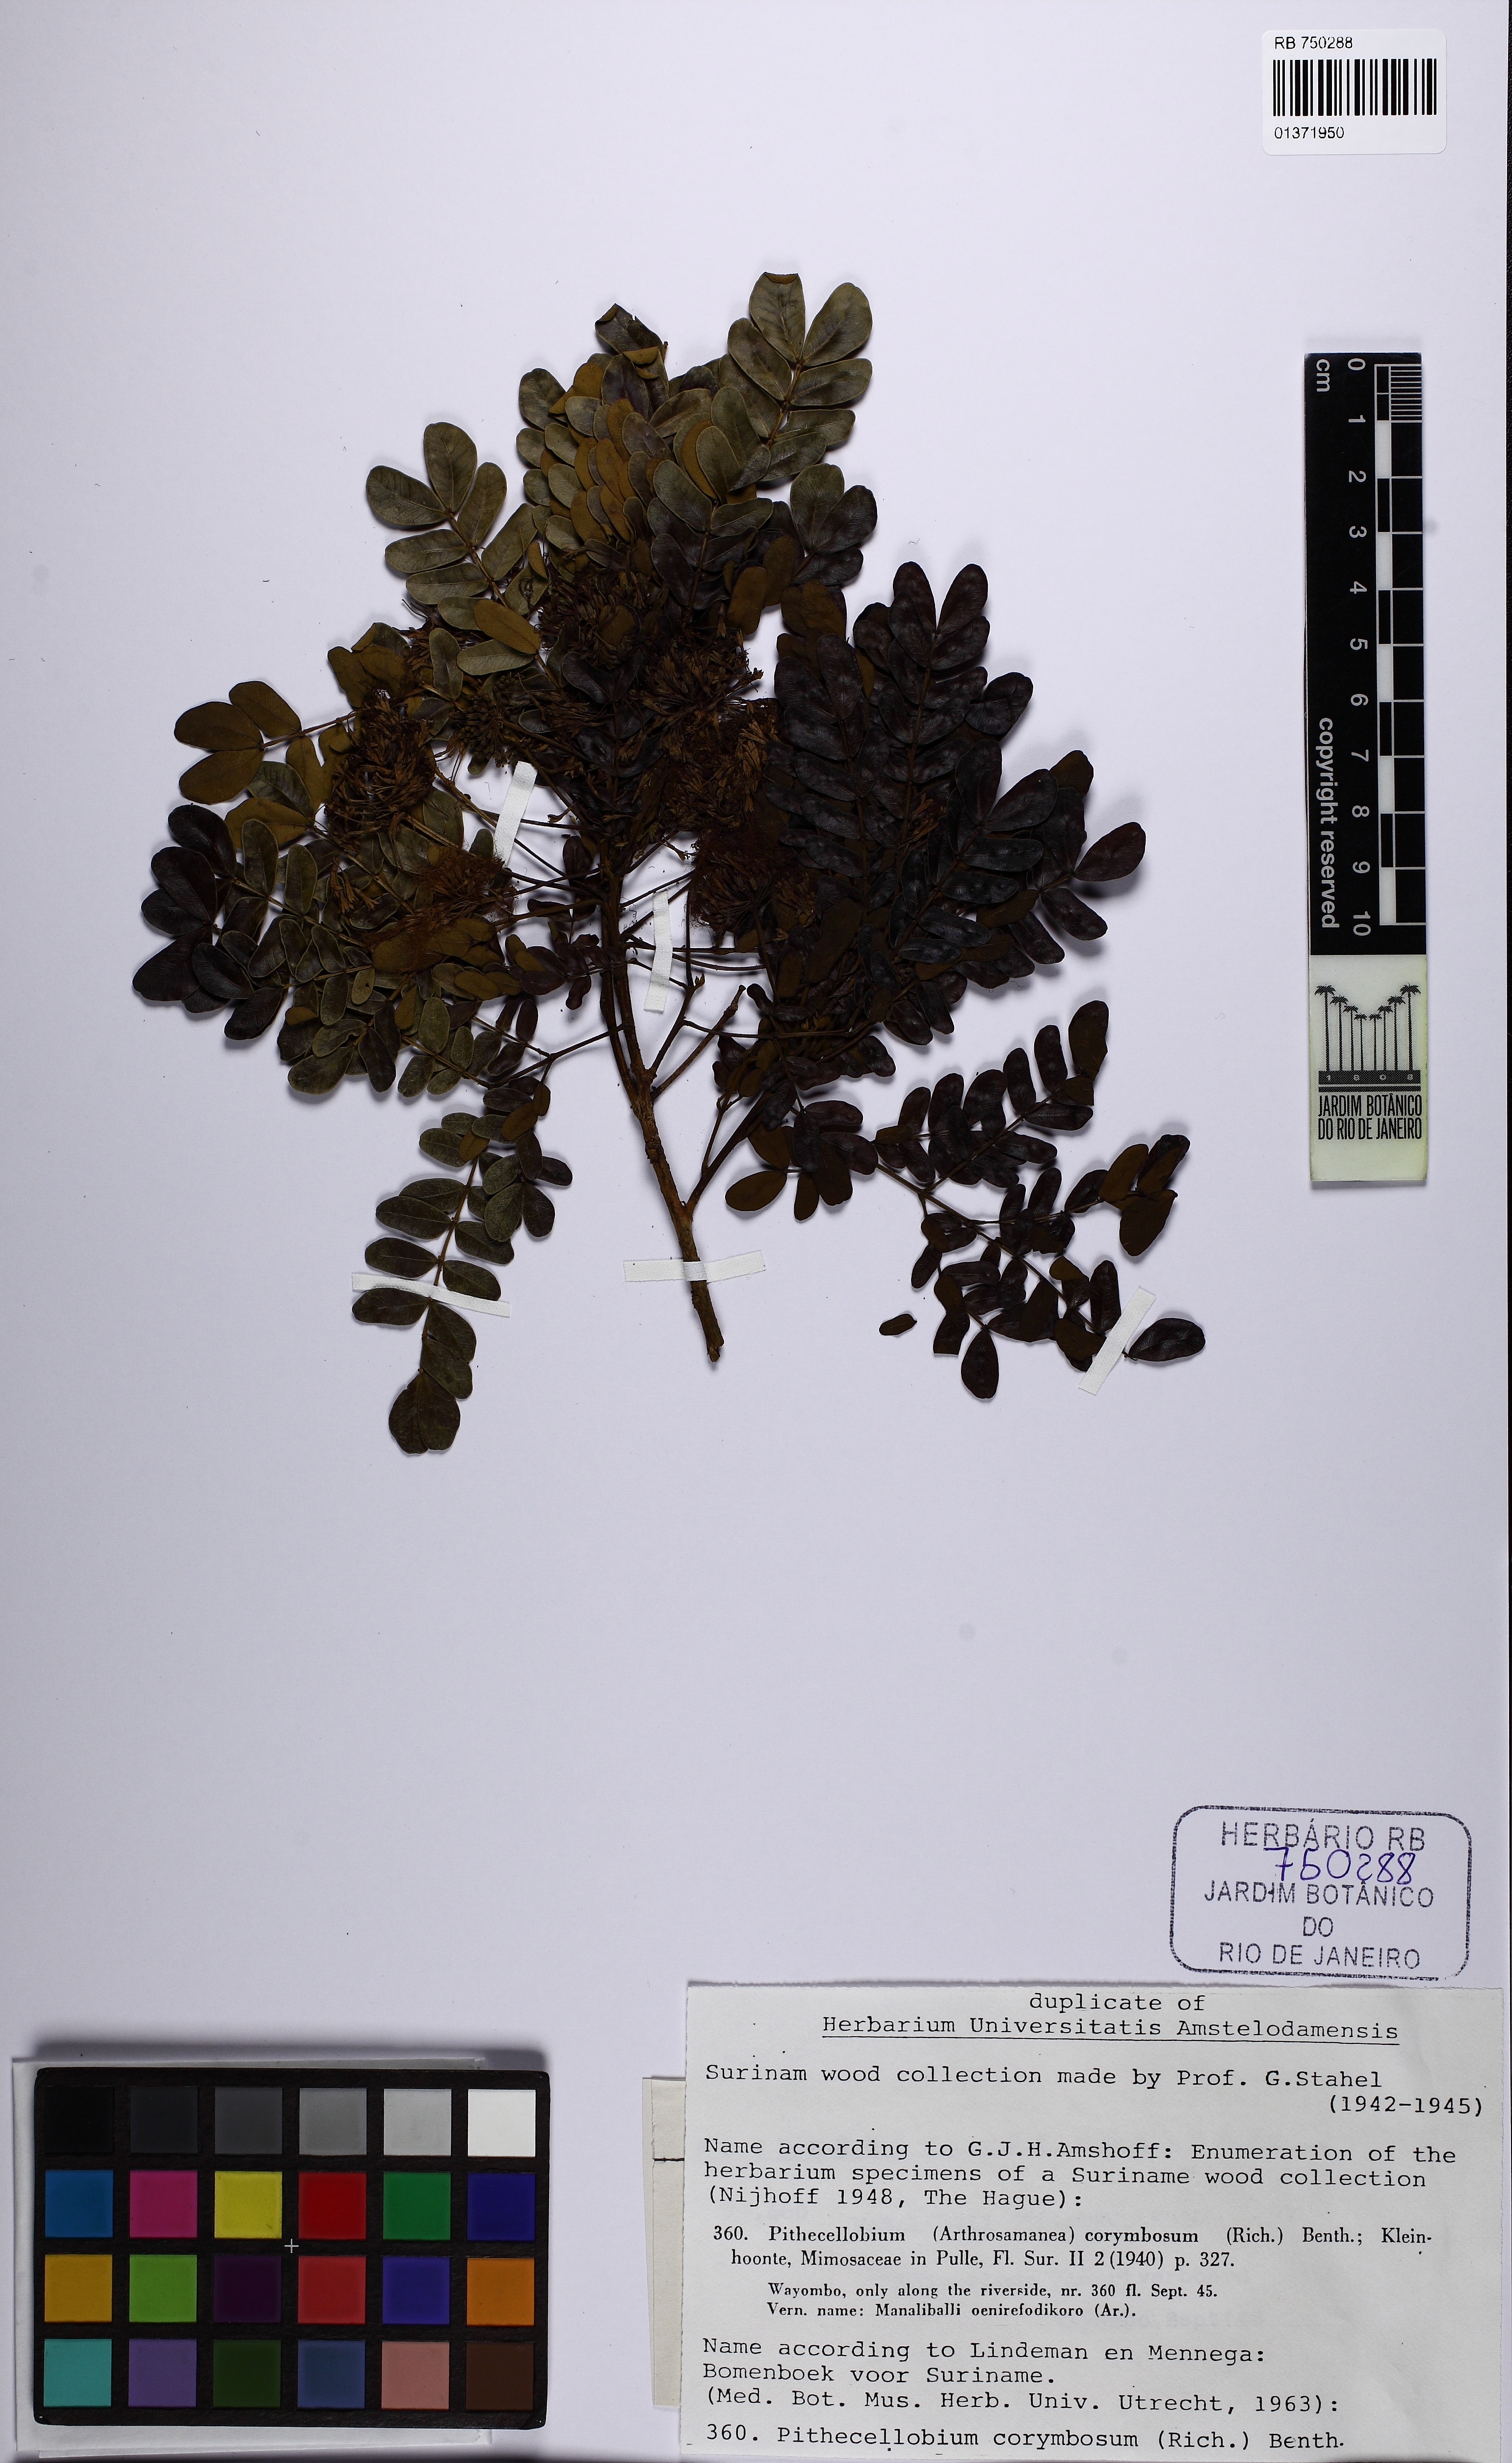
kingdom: Plantae
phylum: Tracheophyta
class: Magnoliopsida
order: Fabales
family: Fabaceae
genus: Hydrochorea
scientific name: Hydrochorea corymbosa
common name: Swamp manariballi
